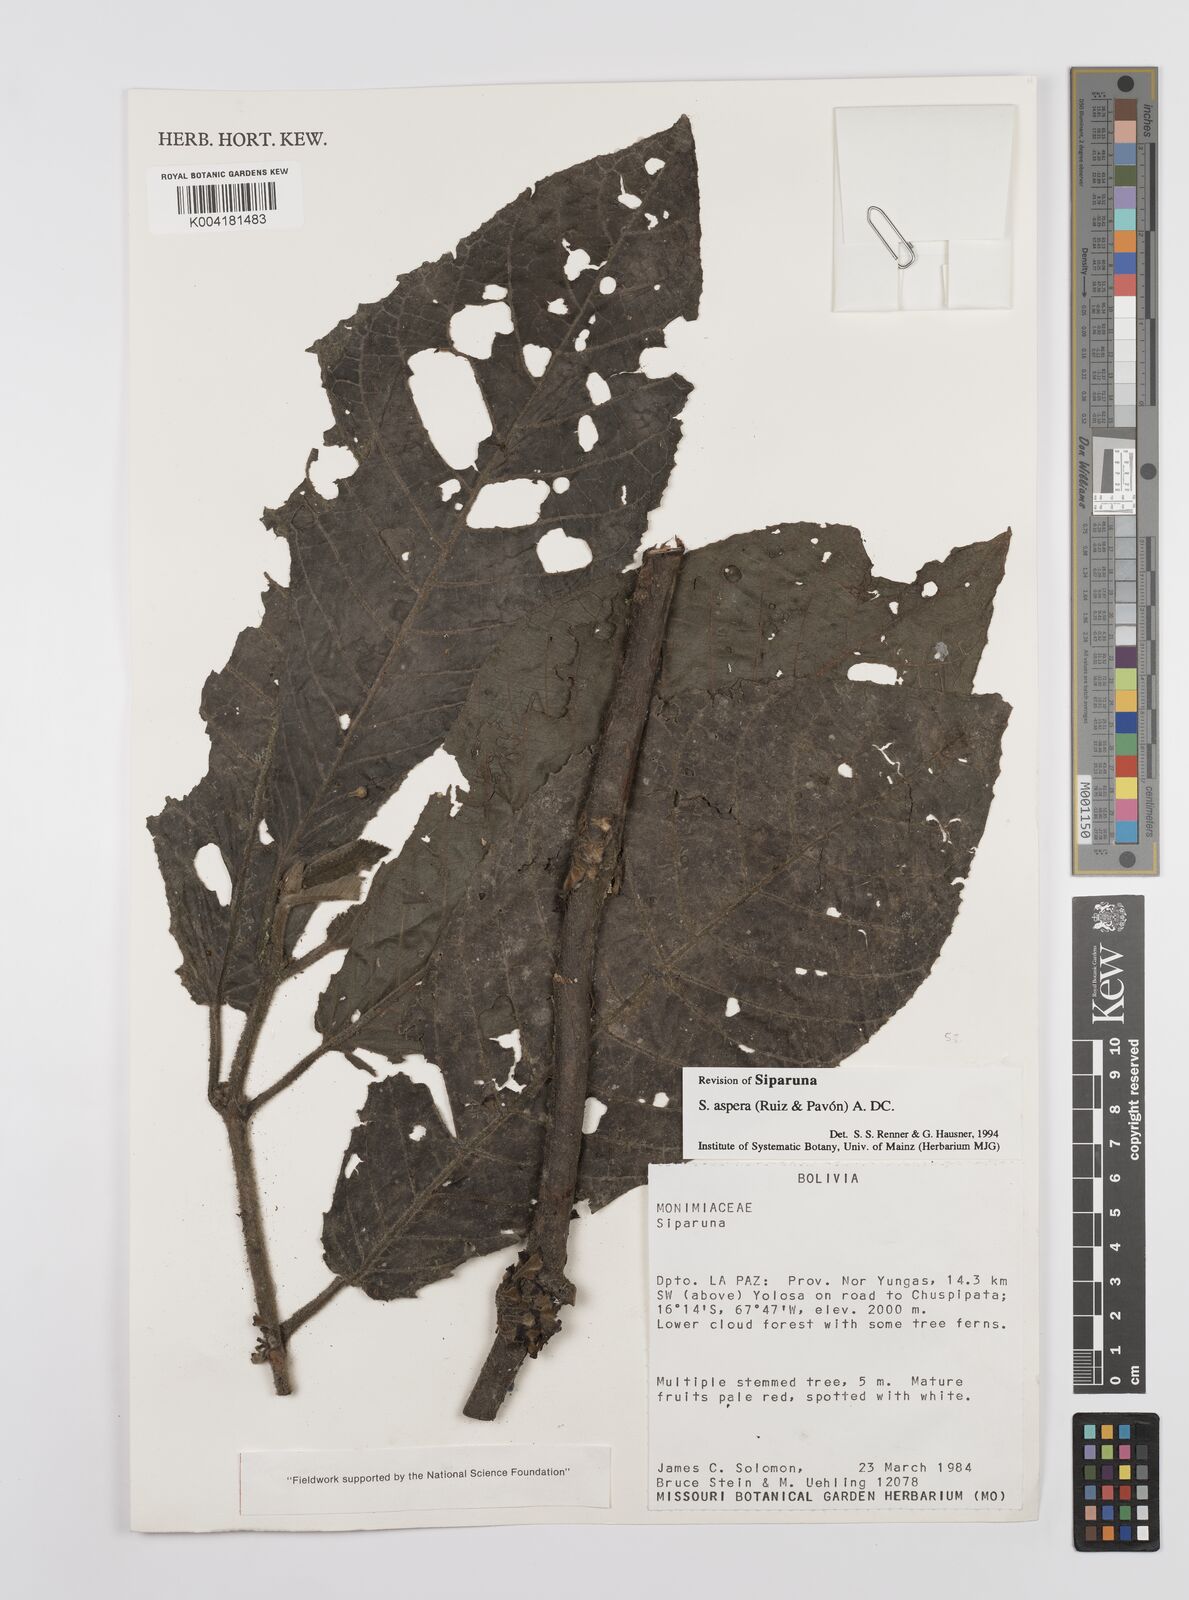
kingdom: Plantae
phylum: Tracheophyta
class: Magnoliopsida
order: Laurales
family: Siparunaceae
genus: Siparuna
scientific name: Siparuna aspera
